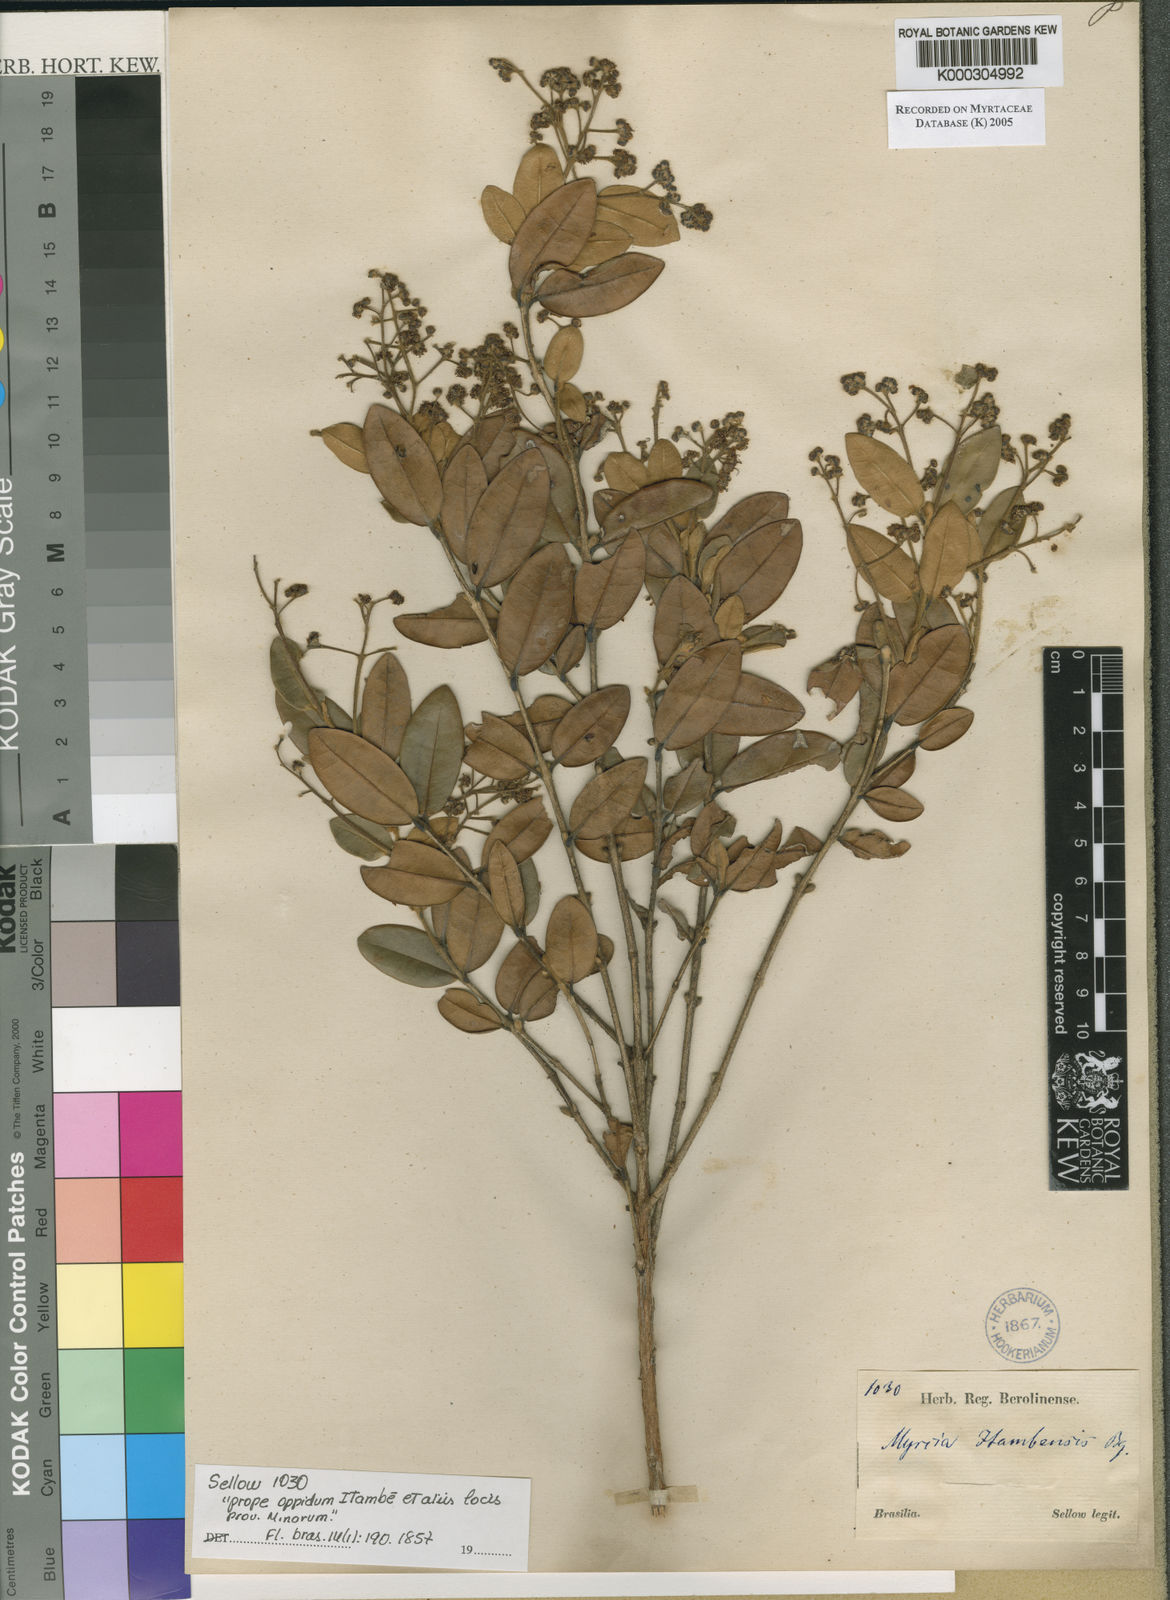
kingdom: Plantae
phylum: Tracheophyta
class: Magnoliopsida
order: Myrtales
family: Myrtaceae
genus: Myrcia
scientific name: Myrcia retorta
